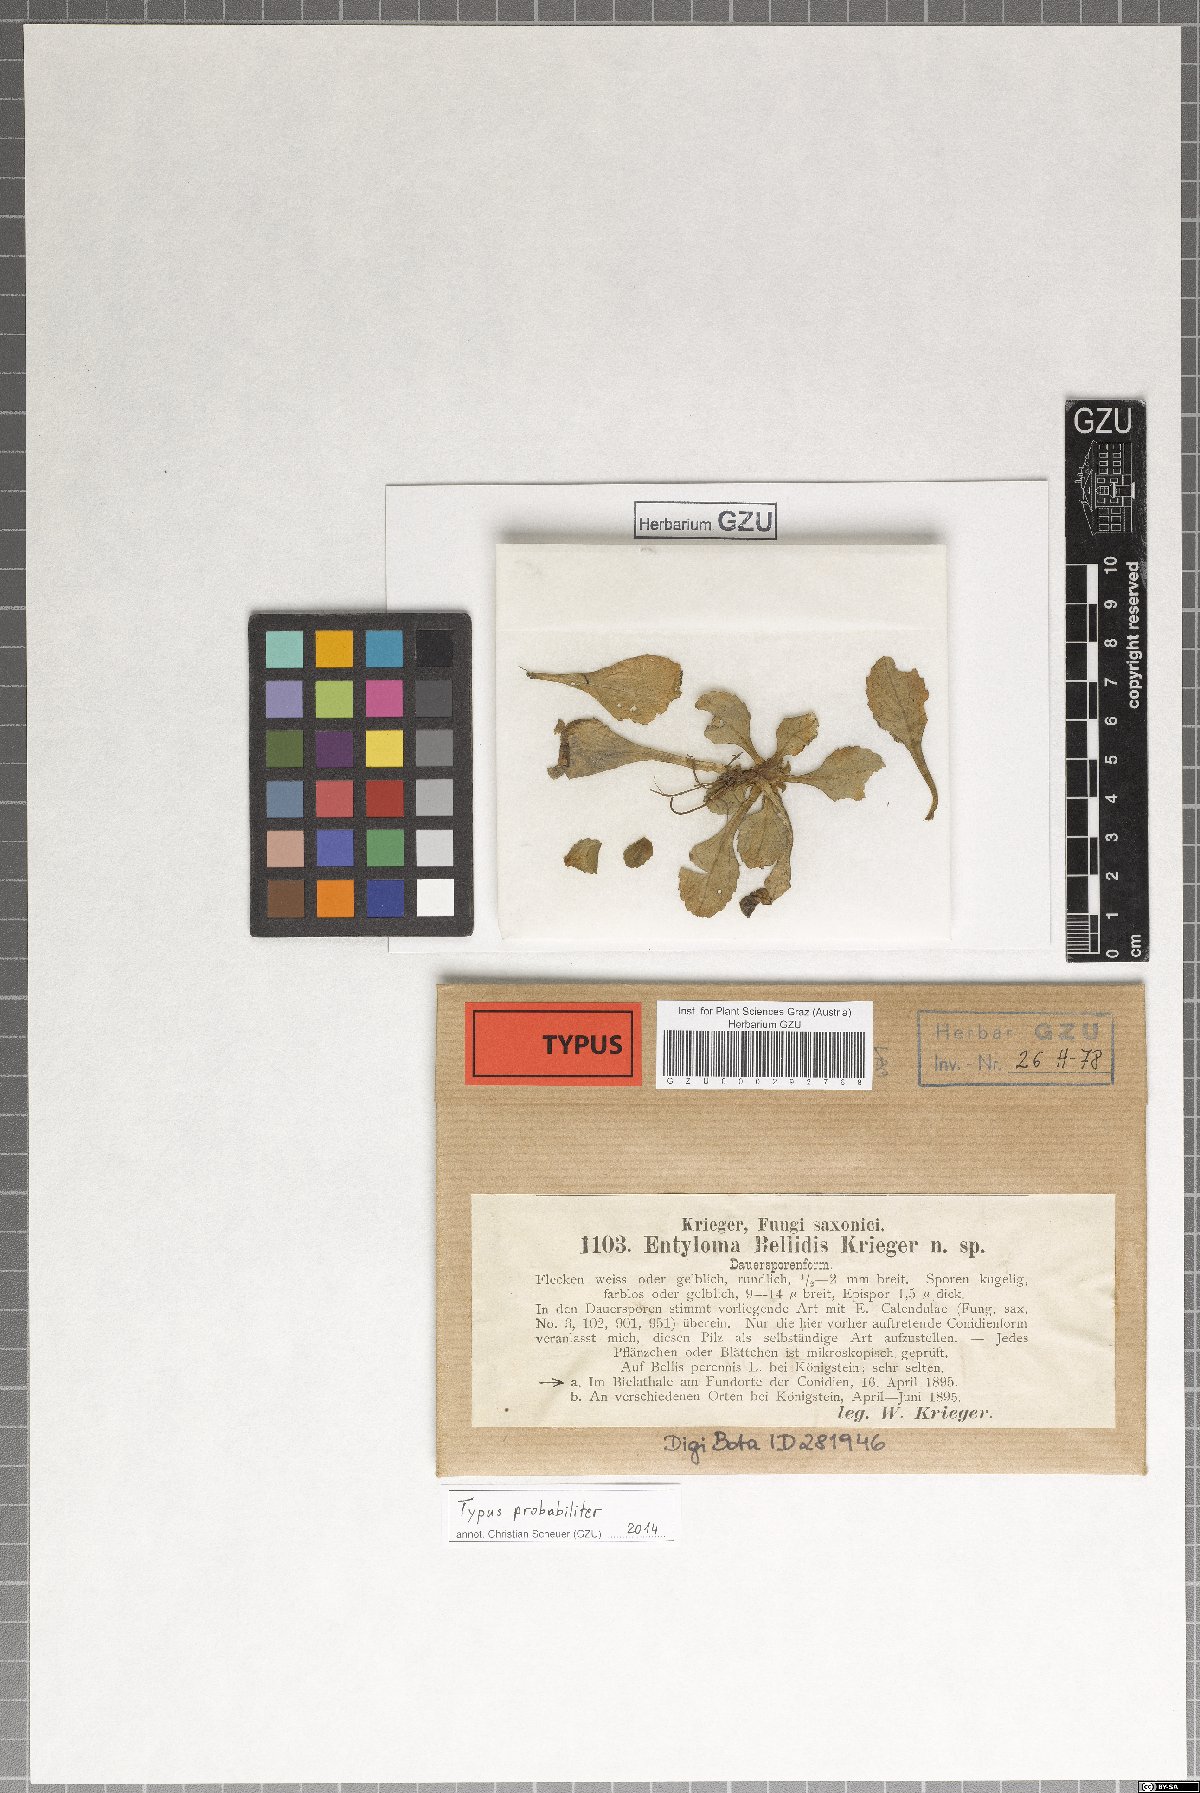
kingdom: Fungi
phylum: Basidiomycota
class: Exobasidiomycetes
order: Entylomatales
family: Entylomataceae
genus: Entyloma
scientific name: Entyloma bellidis
